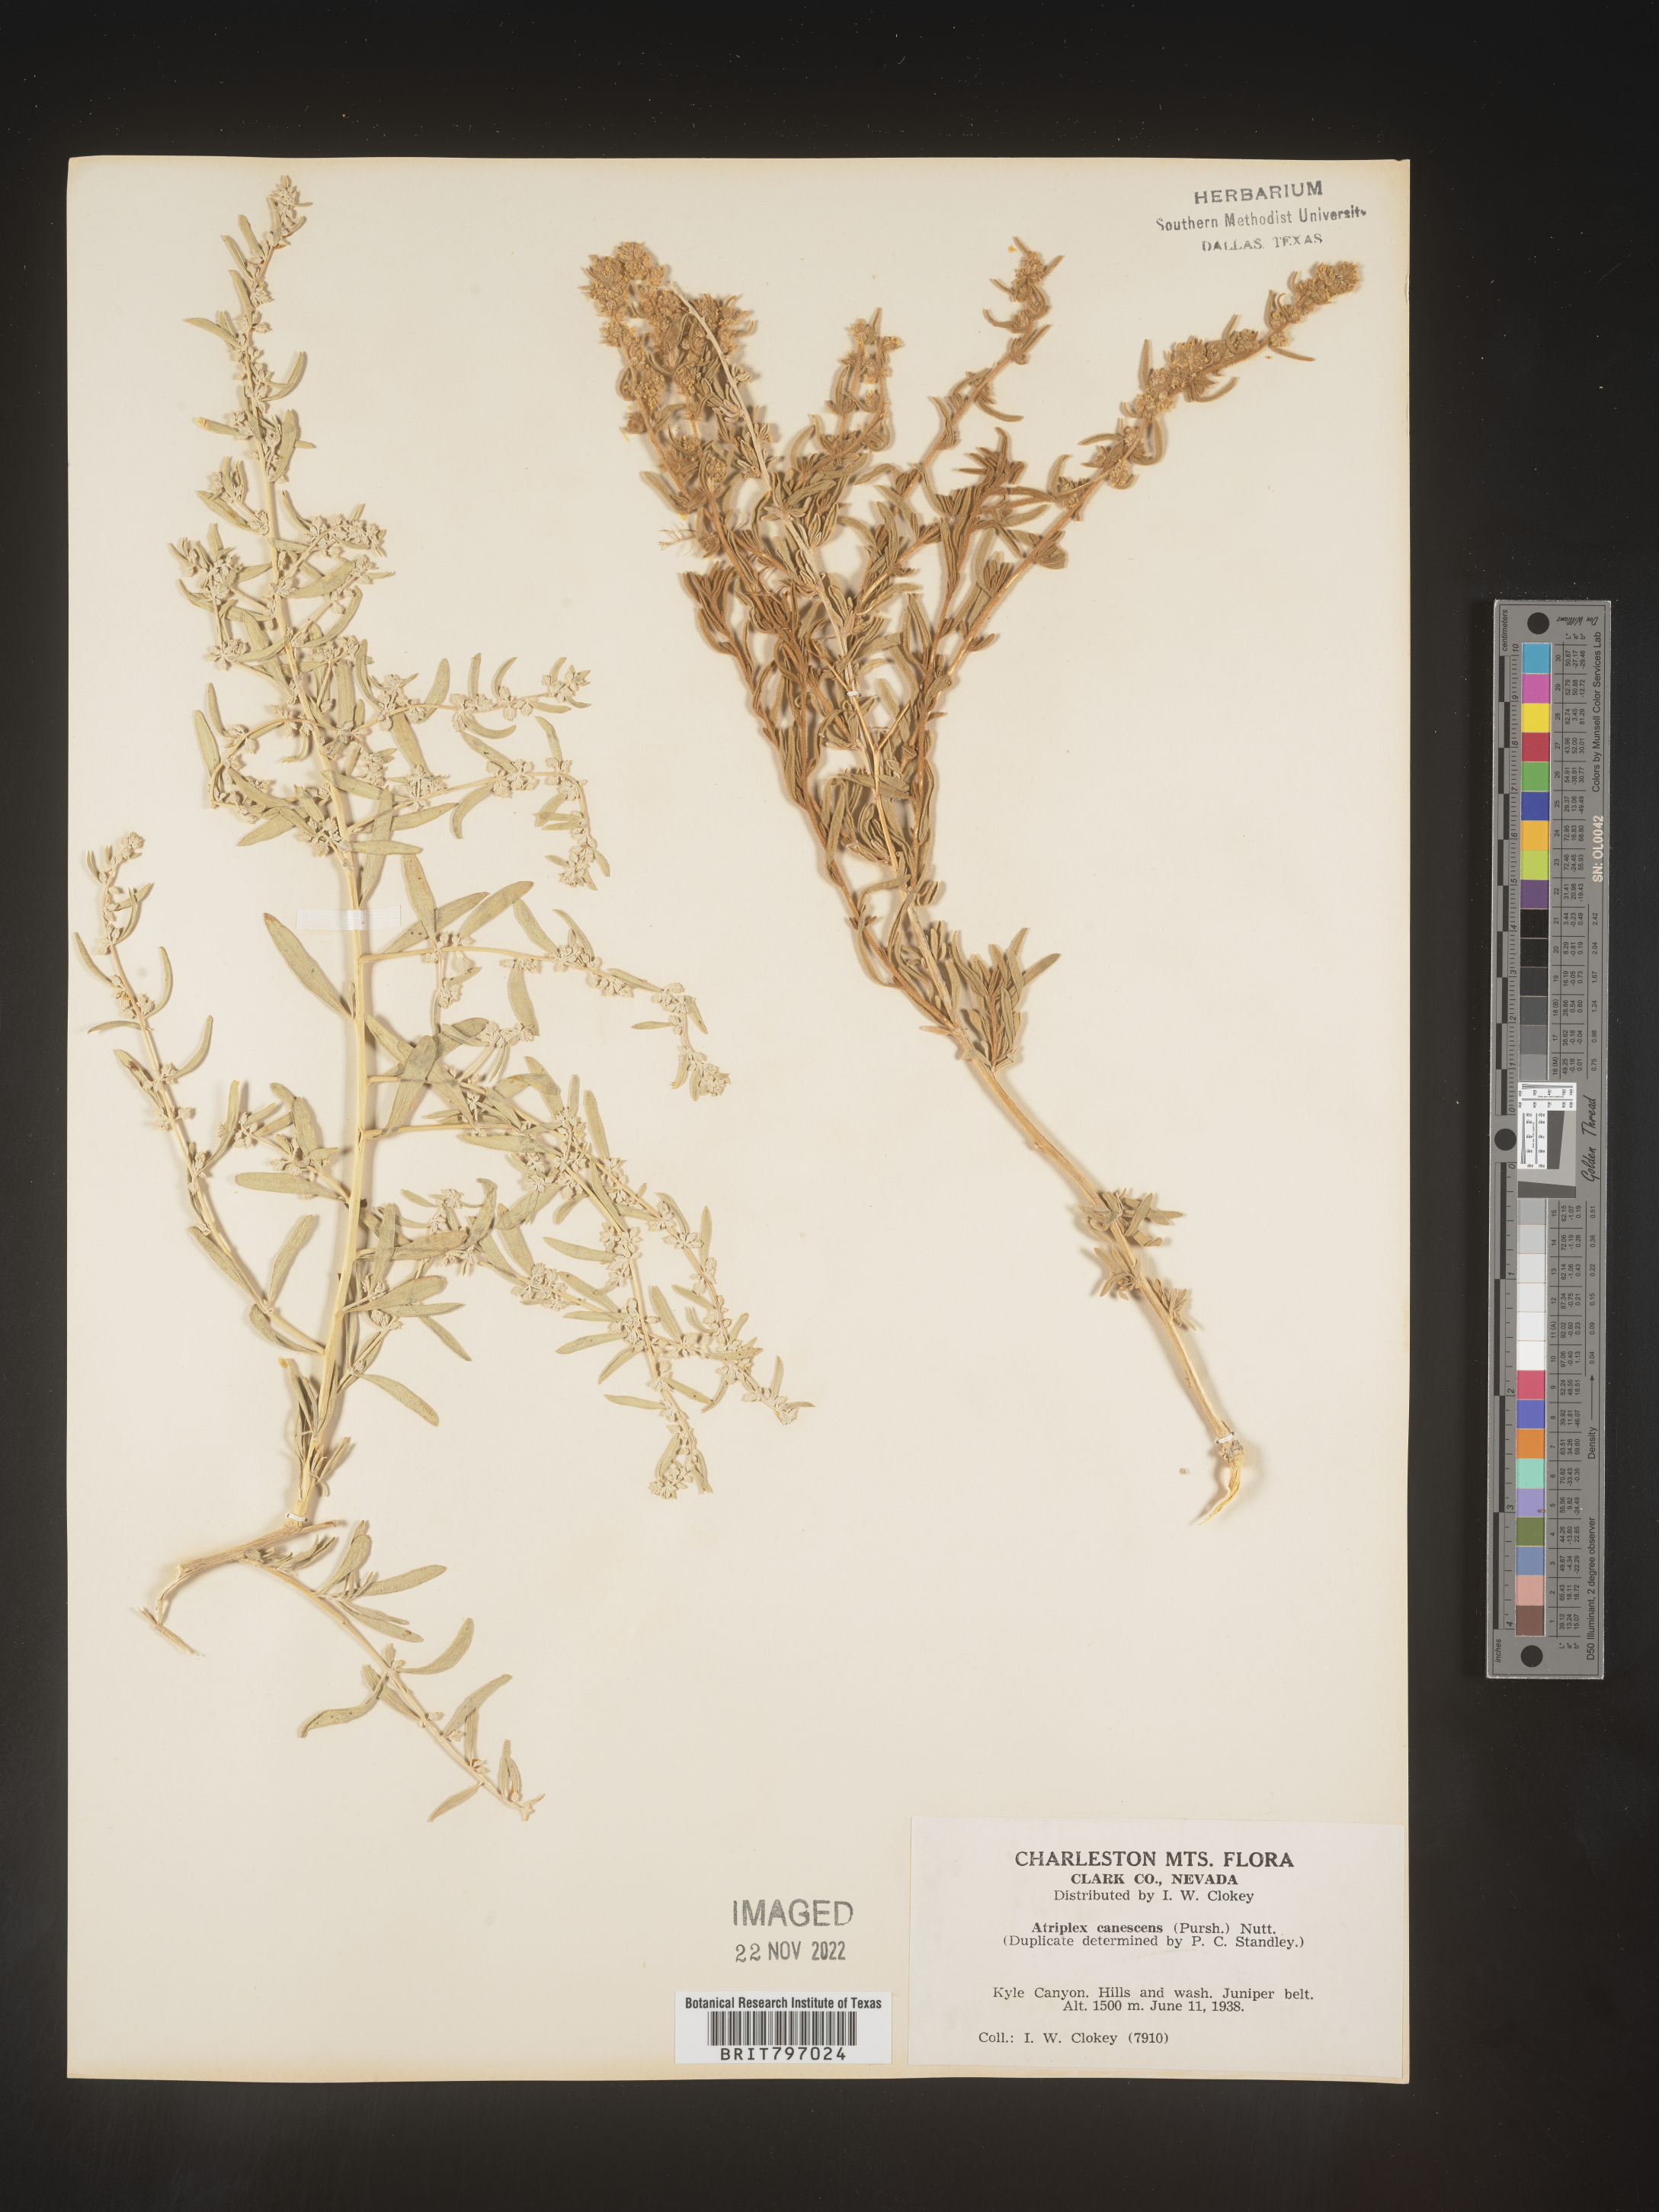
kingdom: Plantae
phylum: Tracheophyta
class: Magnoliopsida
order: Caryophyllales
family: Amaranthaceae
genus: Atriplex
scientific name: Atriplex canescens
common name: Four-wing saltbush
